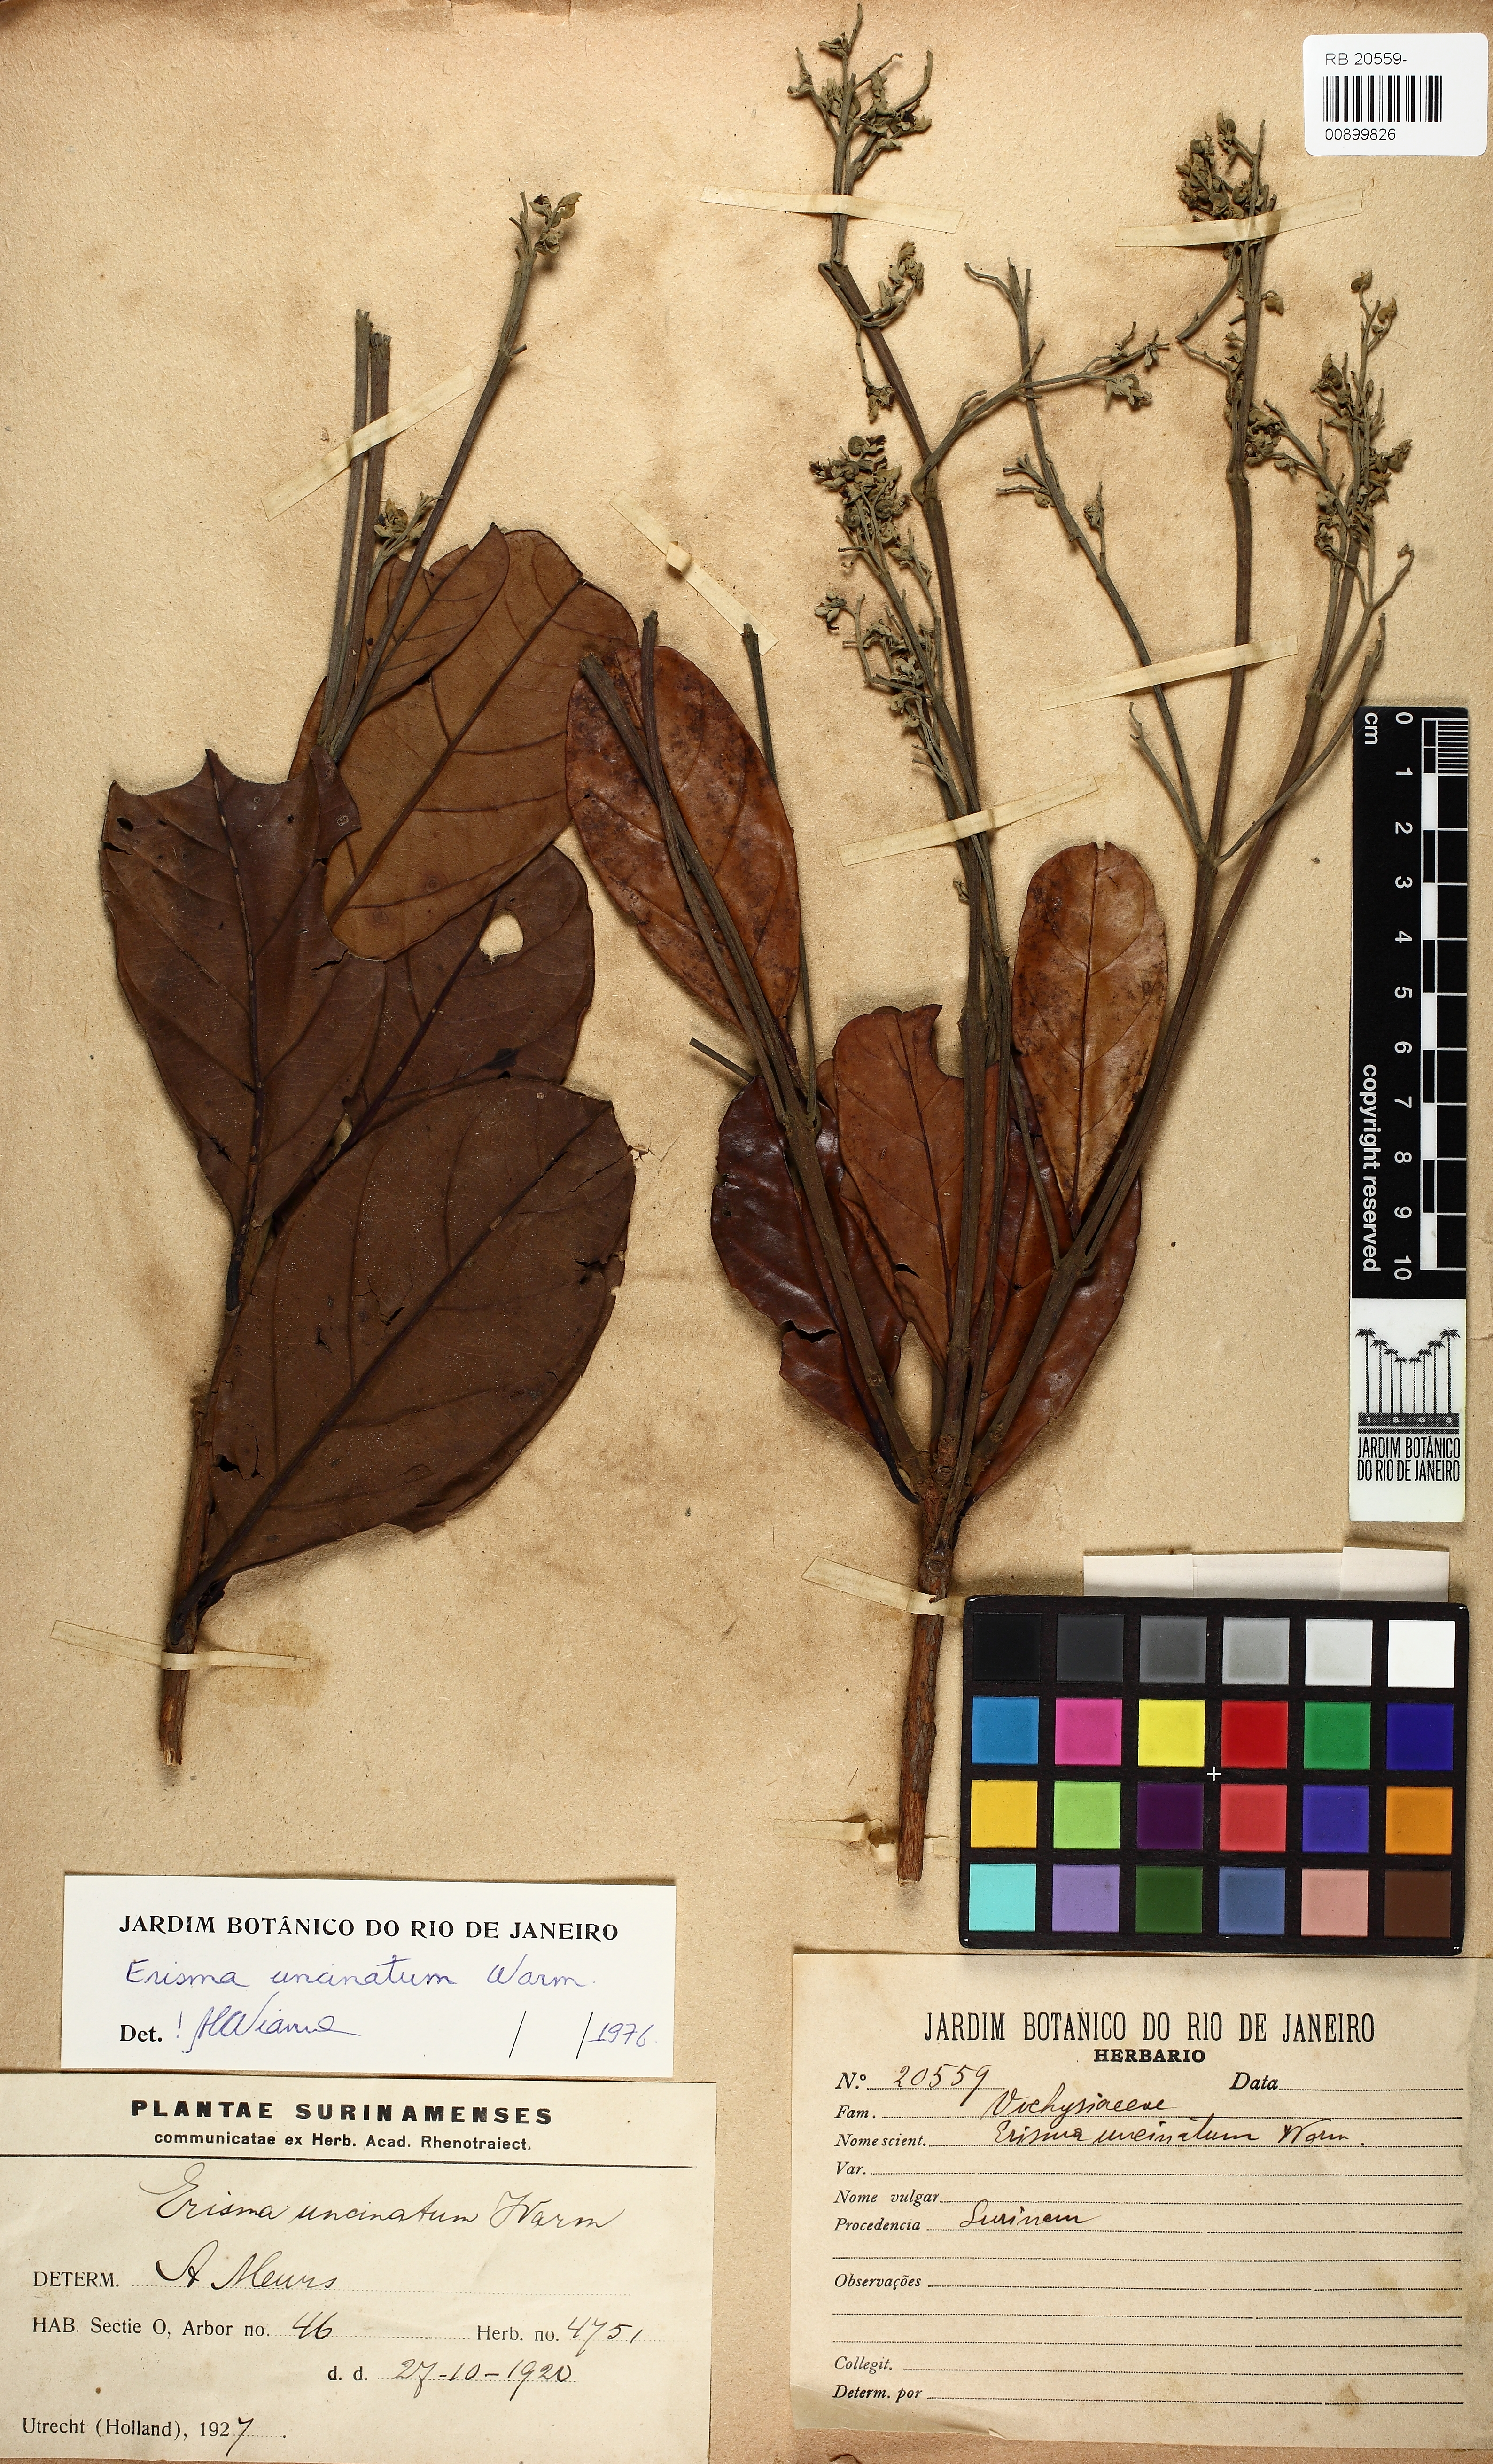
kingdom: Plantae
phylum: Tracheophyta
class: Magnoliopsida
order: Myrtales
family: Vochysiaceae
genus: Erisma
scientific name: Erisma uncinatum
